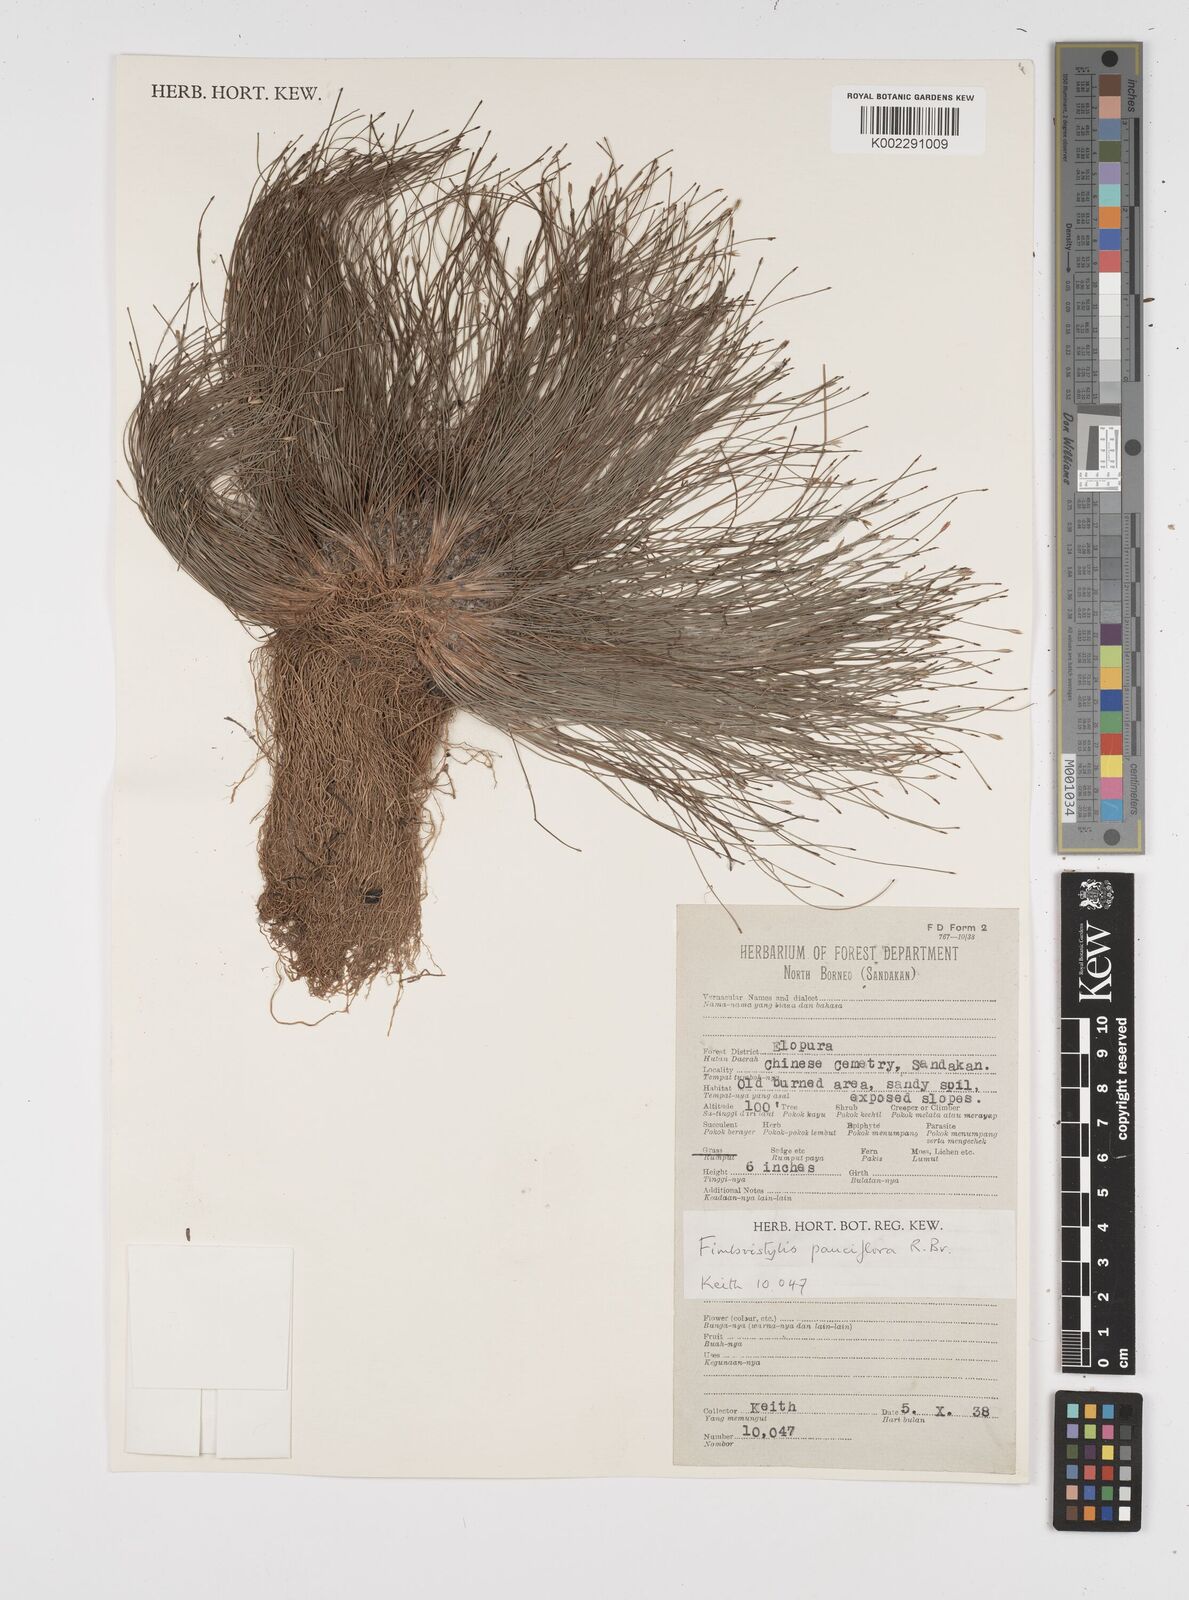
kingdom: Plantae
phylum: Tracheophyta
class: Liliopsida
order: Poales
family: Cyperaceae
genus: Fimbristylis
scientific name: Fimbristylis pauciflora
